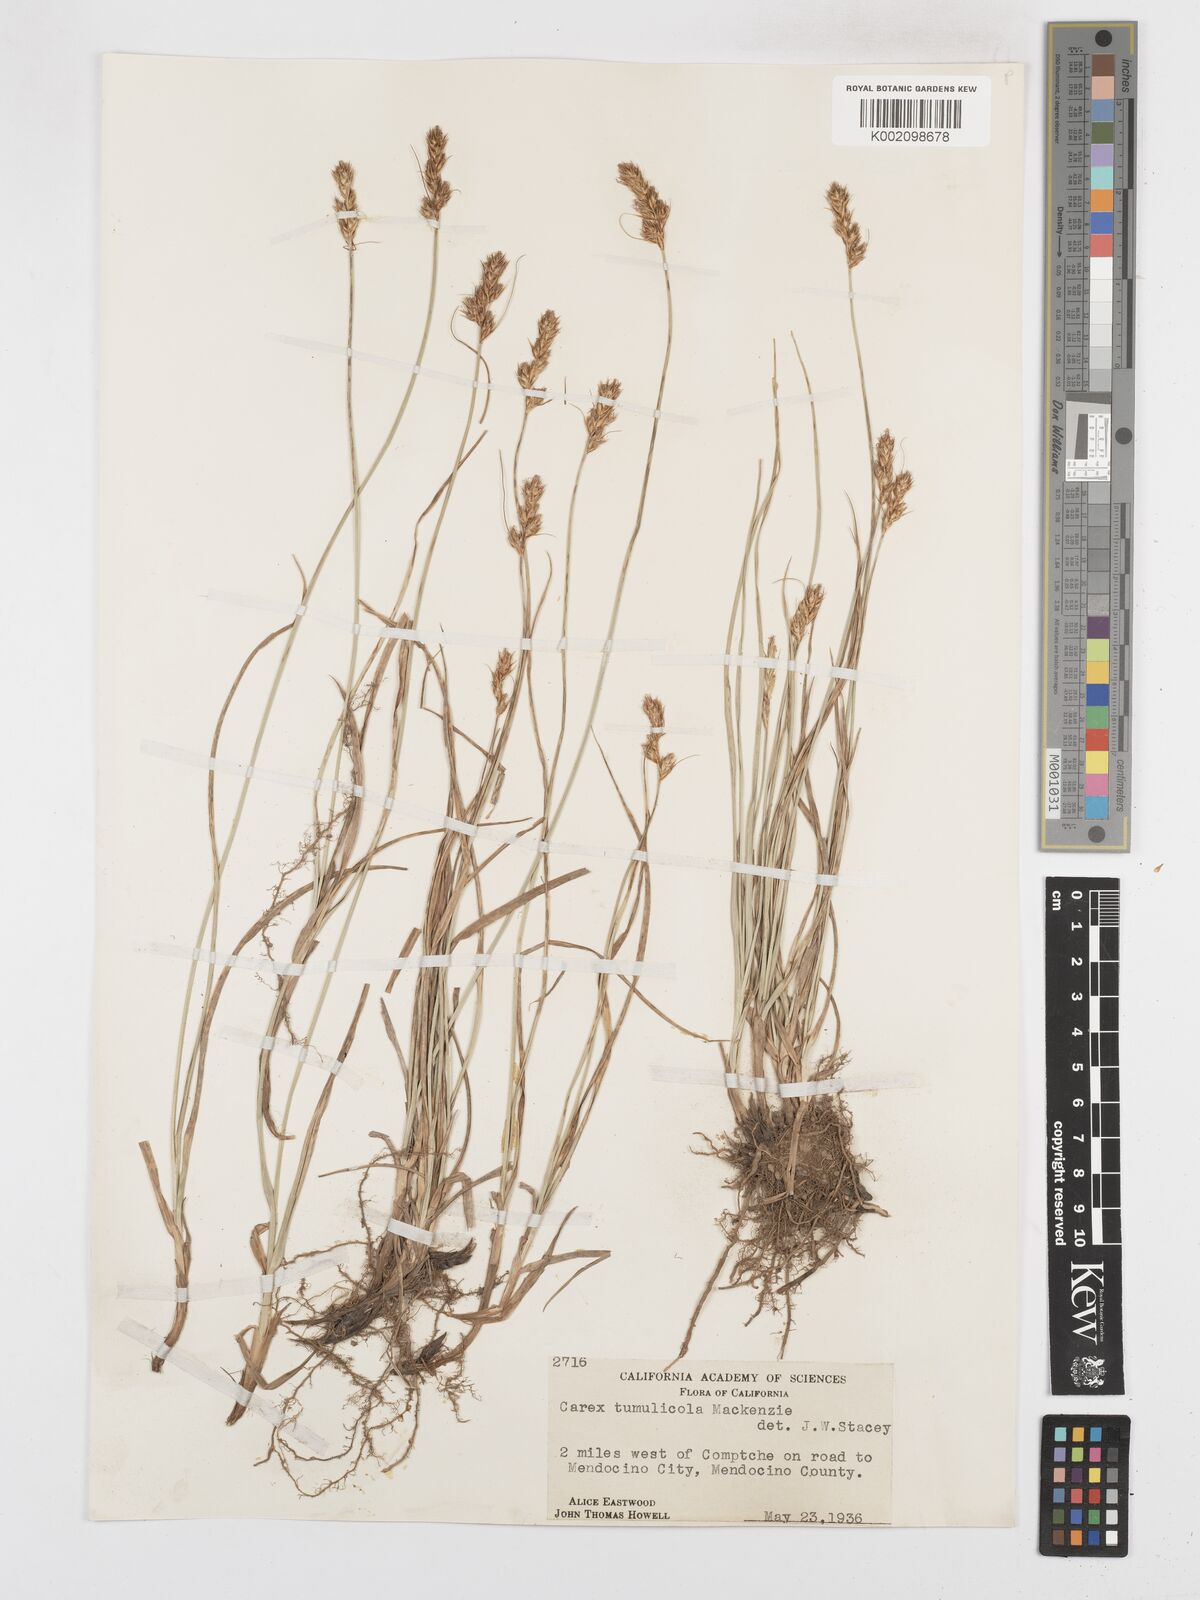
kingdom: Plantae
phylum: Tracheophyta
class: Liliopsida
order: Poales
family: Cyperaceae
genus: Carex
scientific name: Carex tumulicola
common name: Splitawn sedge
